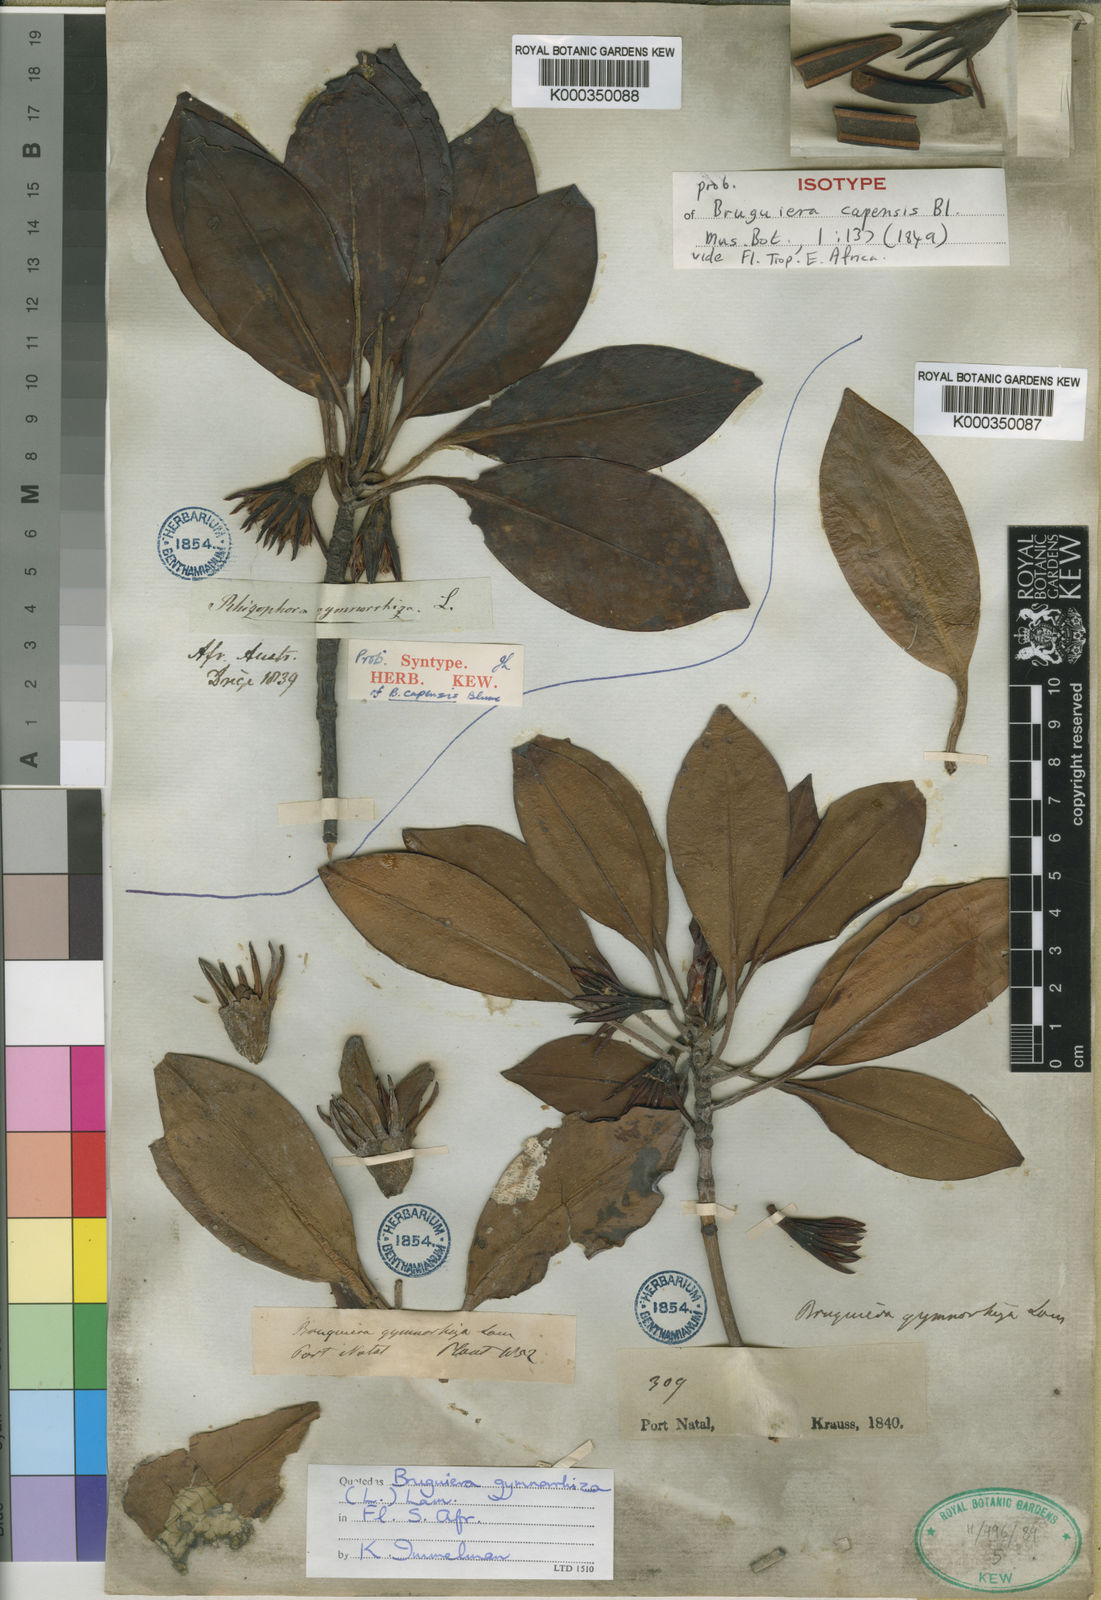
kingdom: Plantae
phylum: Tracheophyta
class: Magnoliopsida
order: Malpighiales
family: Rhizophoraceae
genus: Bruguiera
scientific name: Bruguiera gymnorhiza
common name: Oriental mangrove
